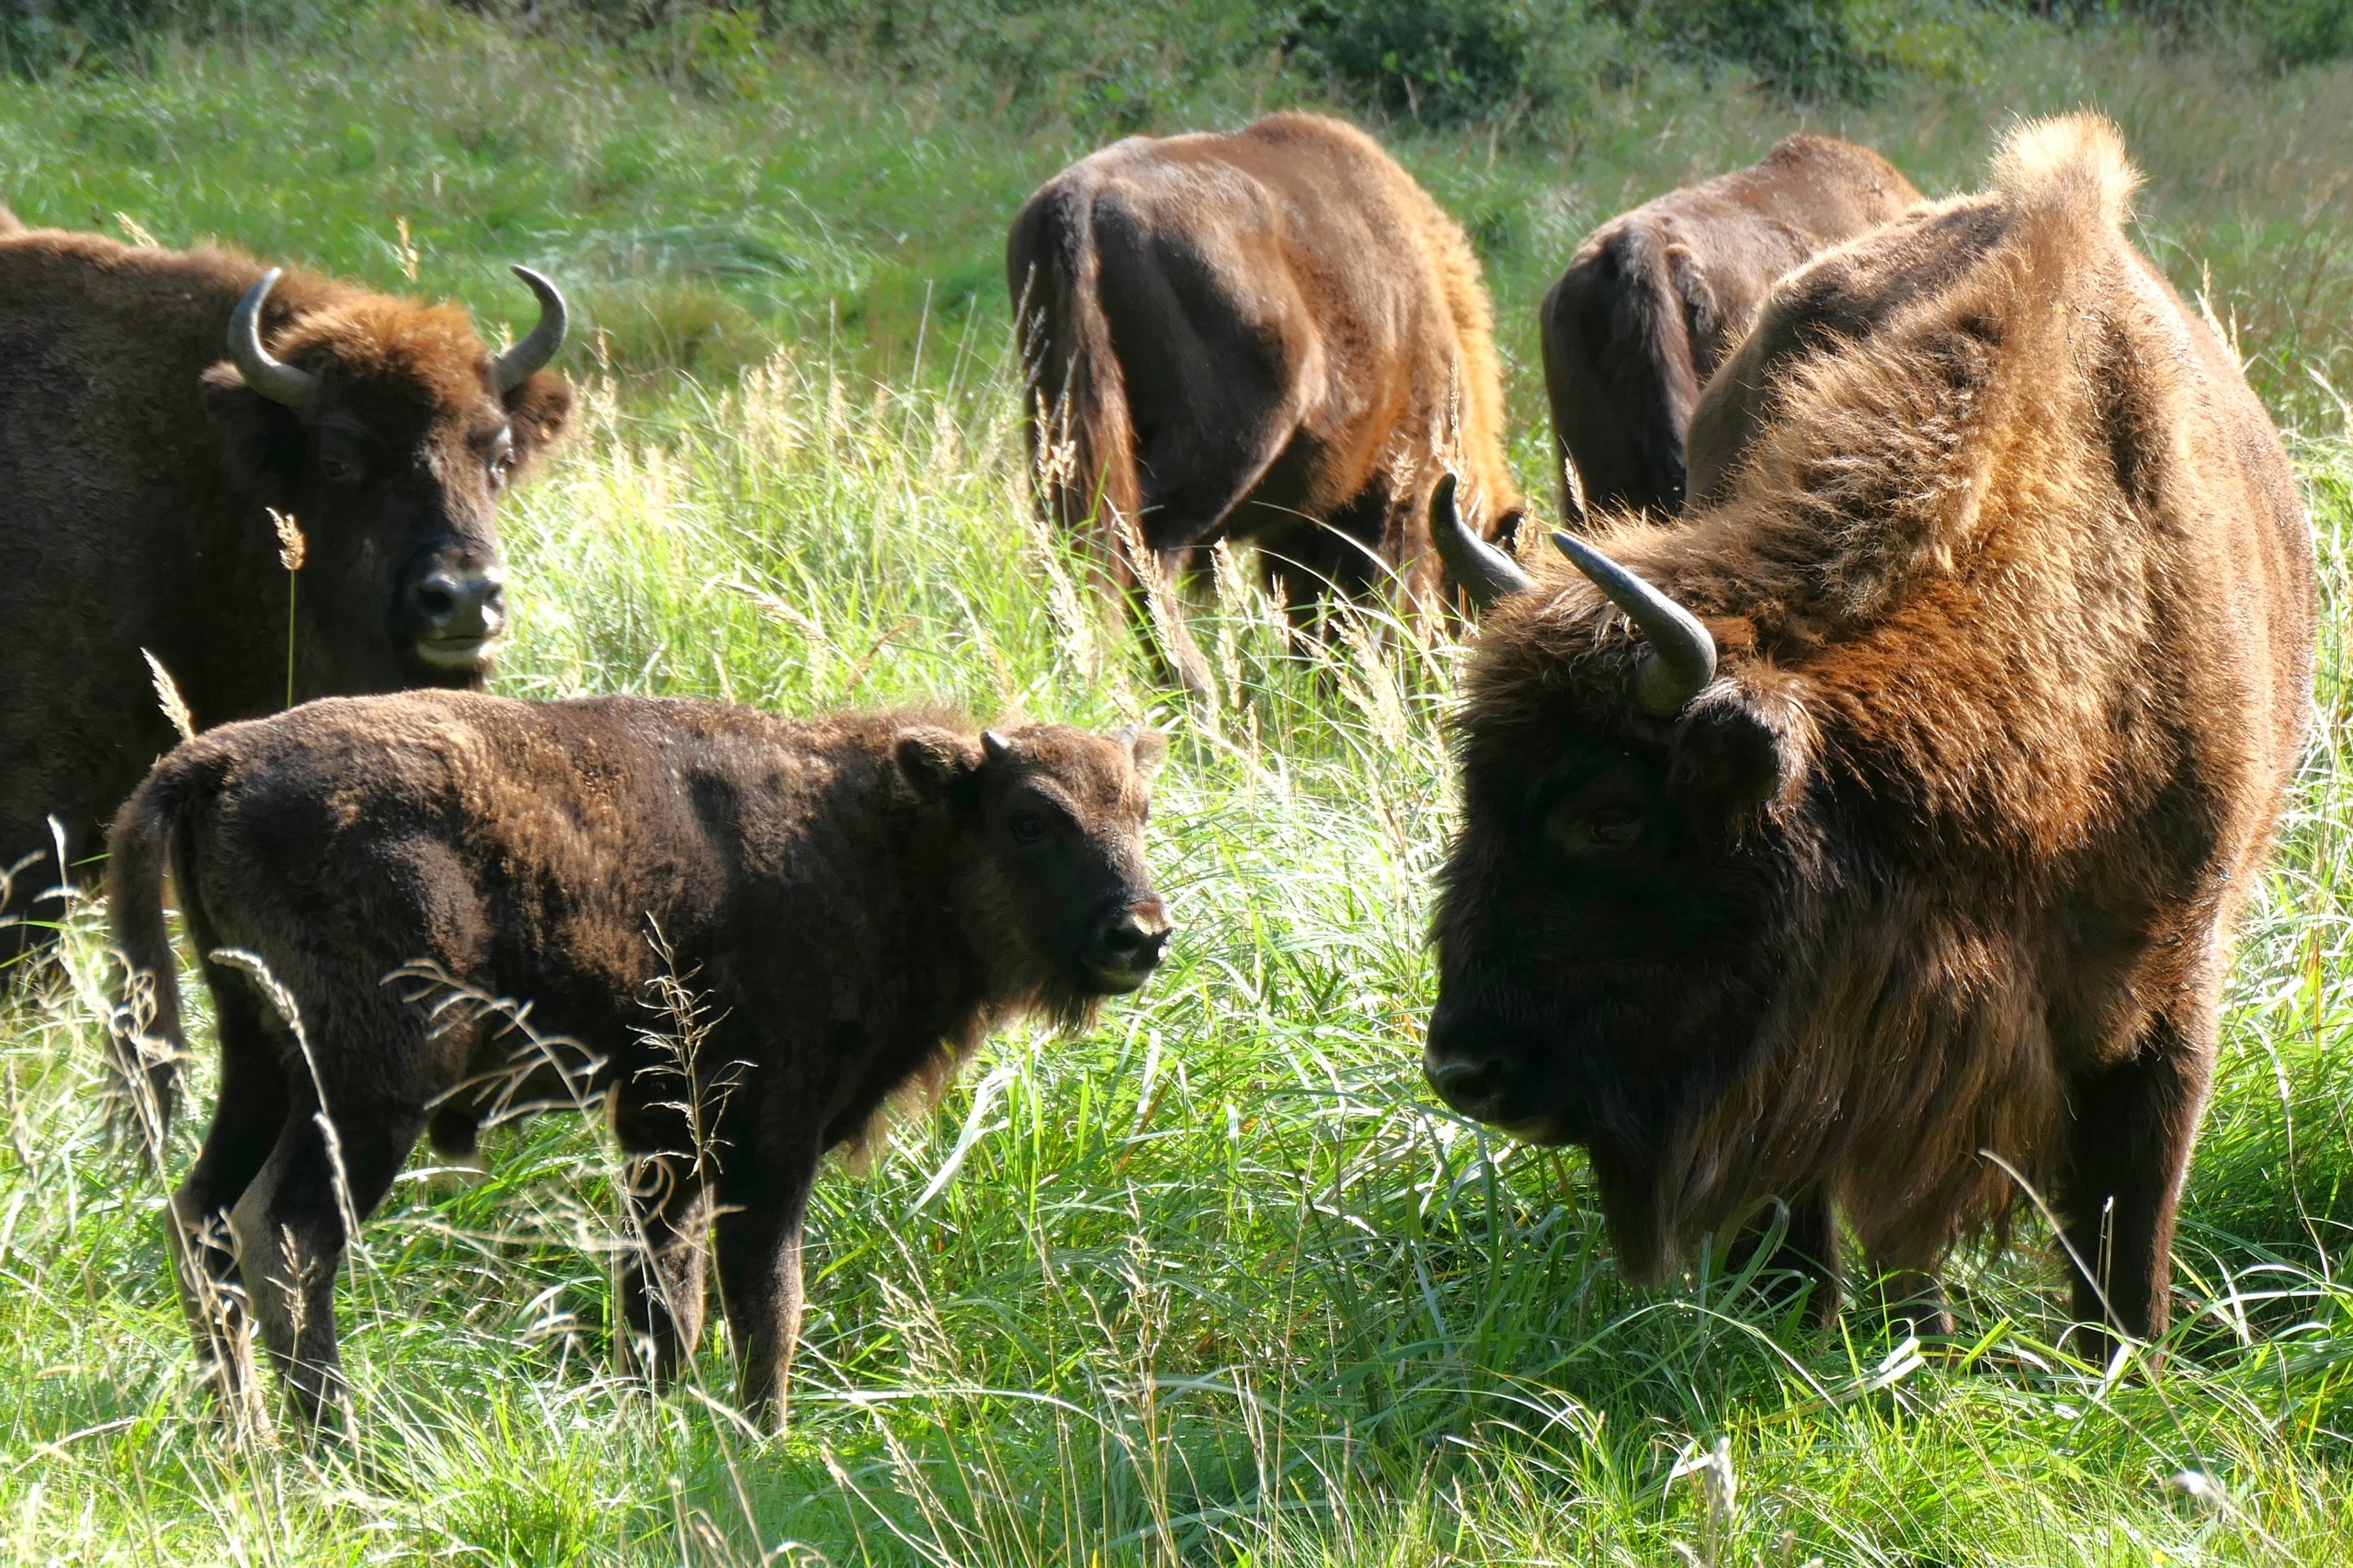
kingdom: Animalia
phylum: Chordata
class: Mammalia
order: Artiodactyla
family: Bovidae
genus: Bison
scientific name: Bison bonasus
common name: Europæisk bison
